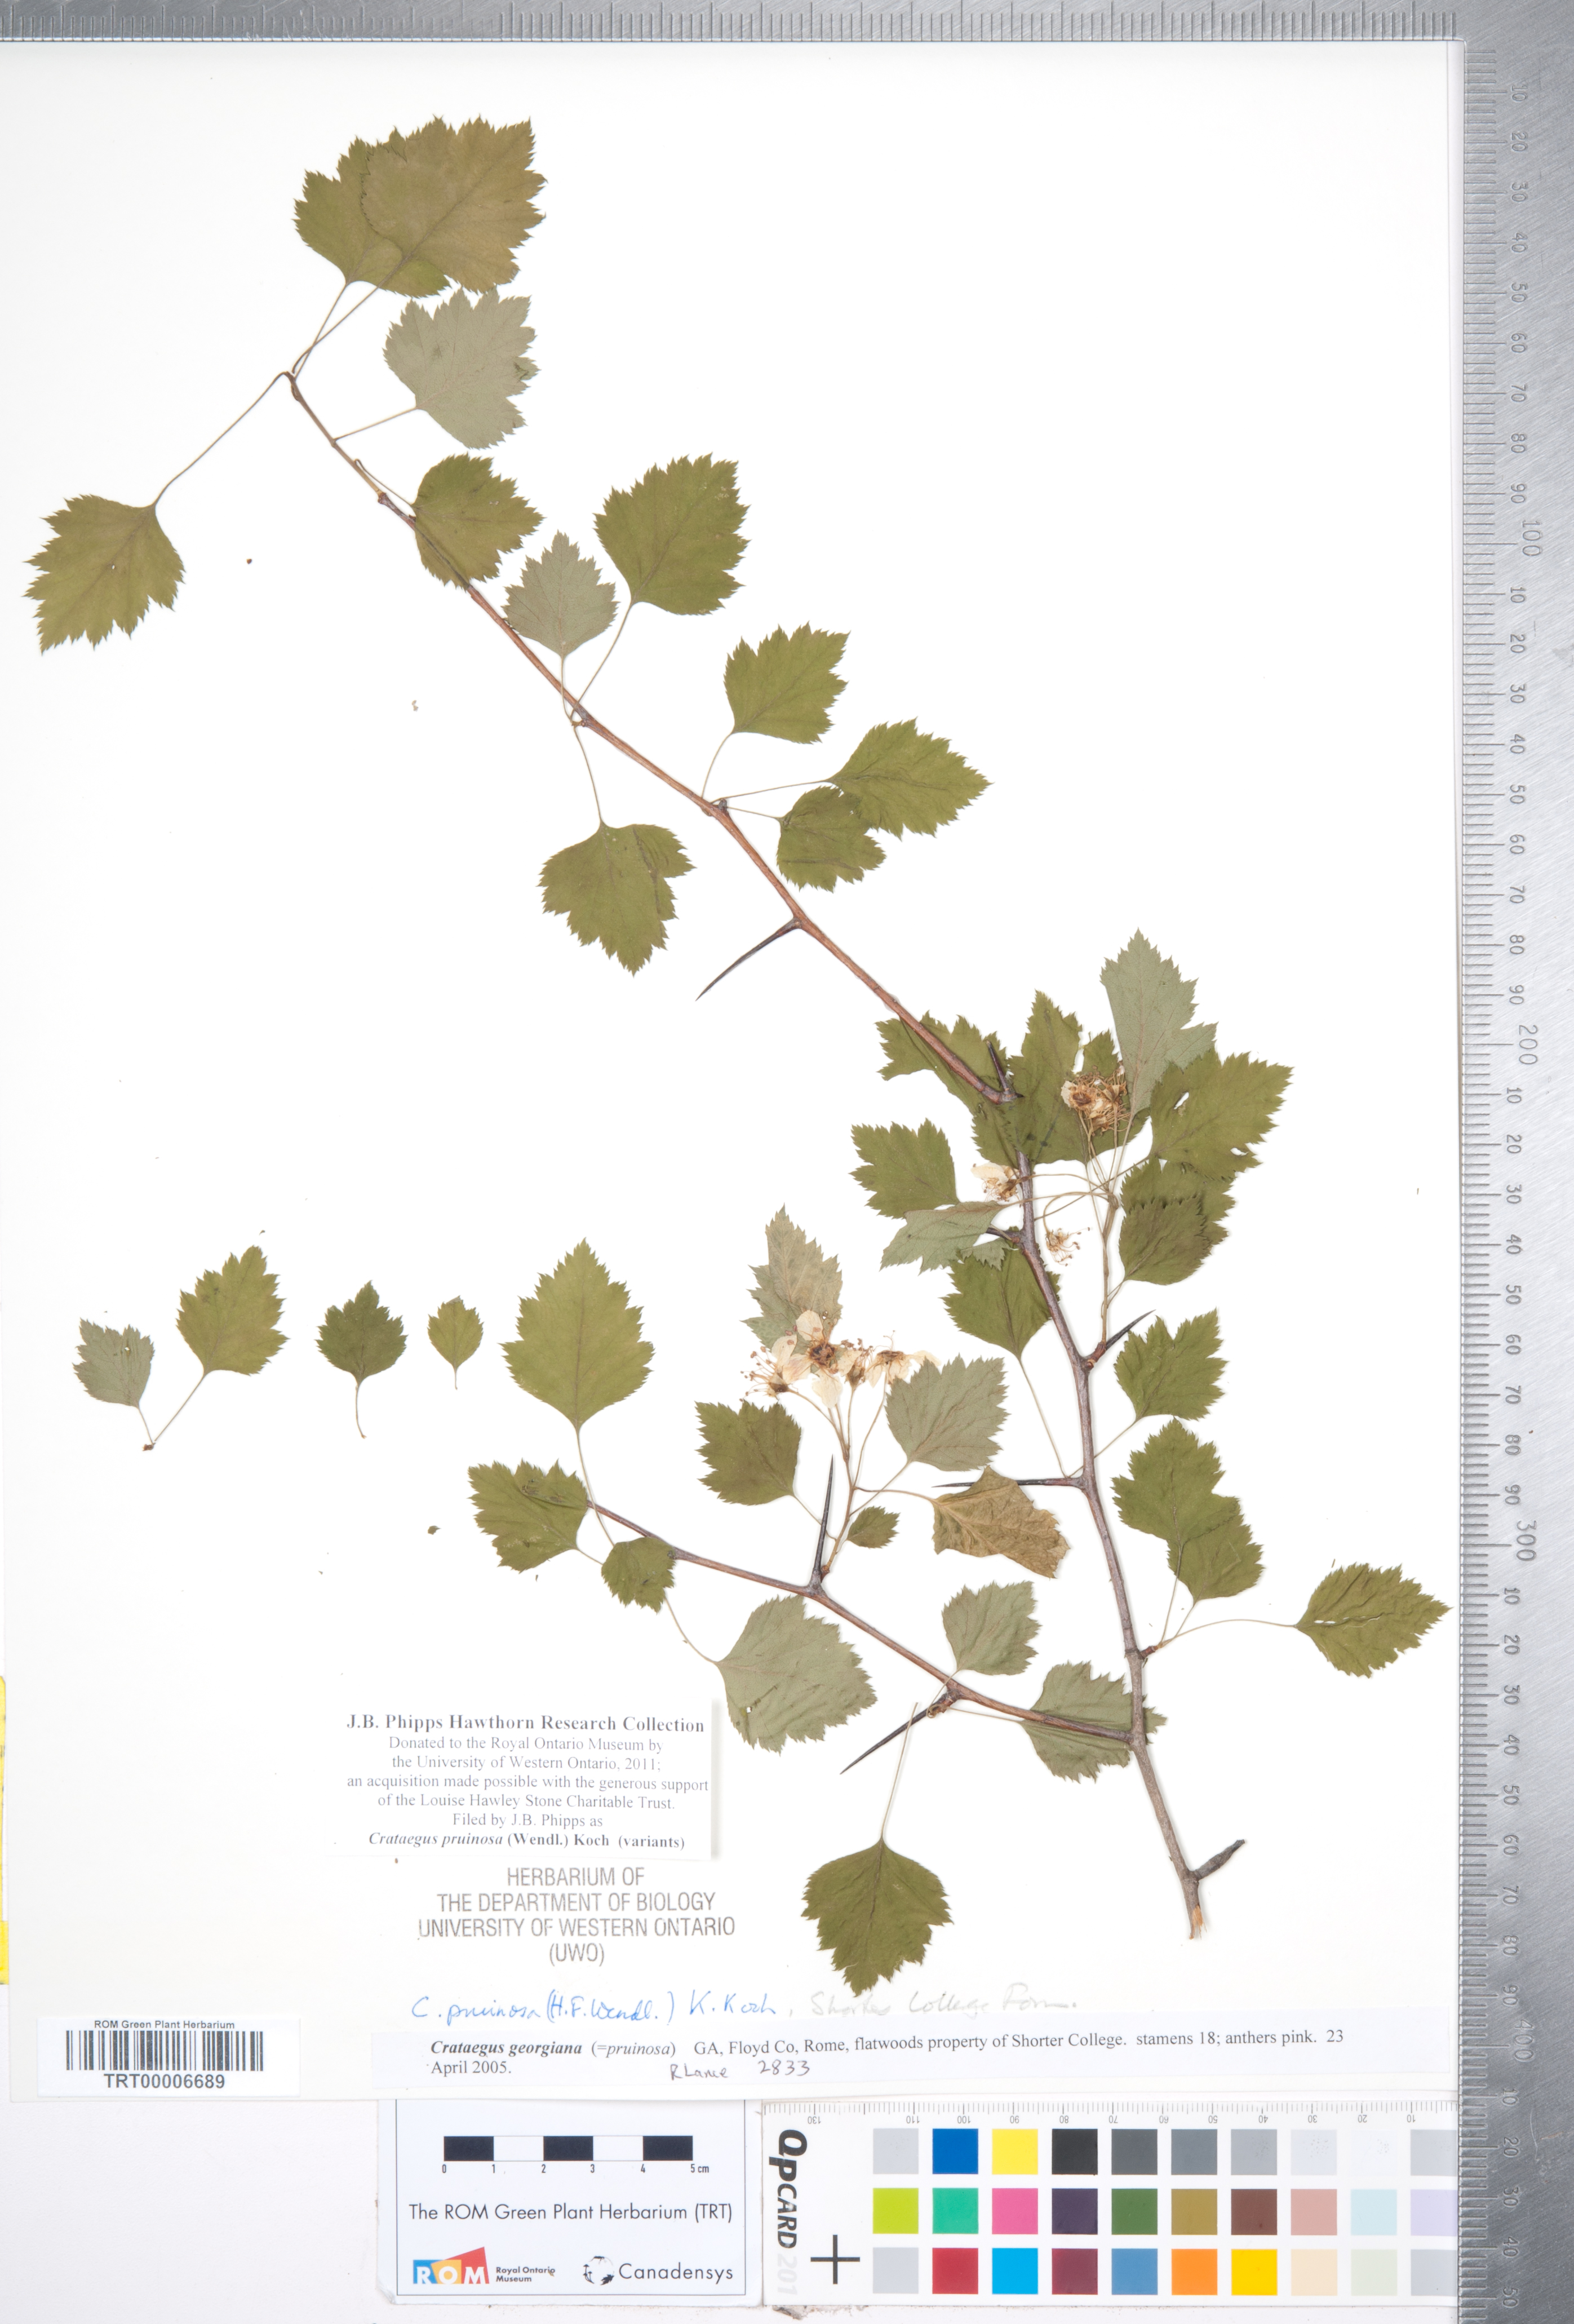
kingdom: Plantae
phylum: Tracheophyta
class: Magnoliopsida
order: Rosales
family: Rosaceae
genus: Crataegus
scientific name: Crataegus pruinosa
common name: Waxy-fruit hawthorn
